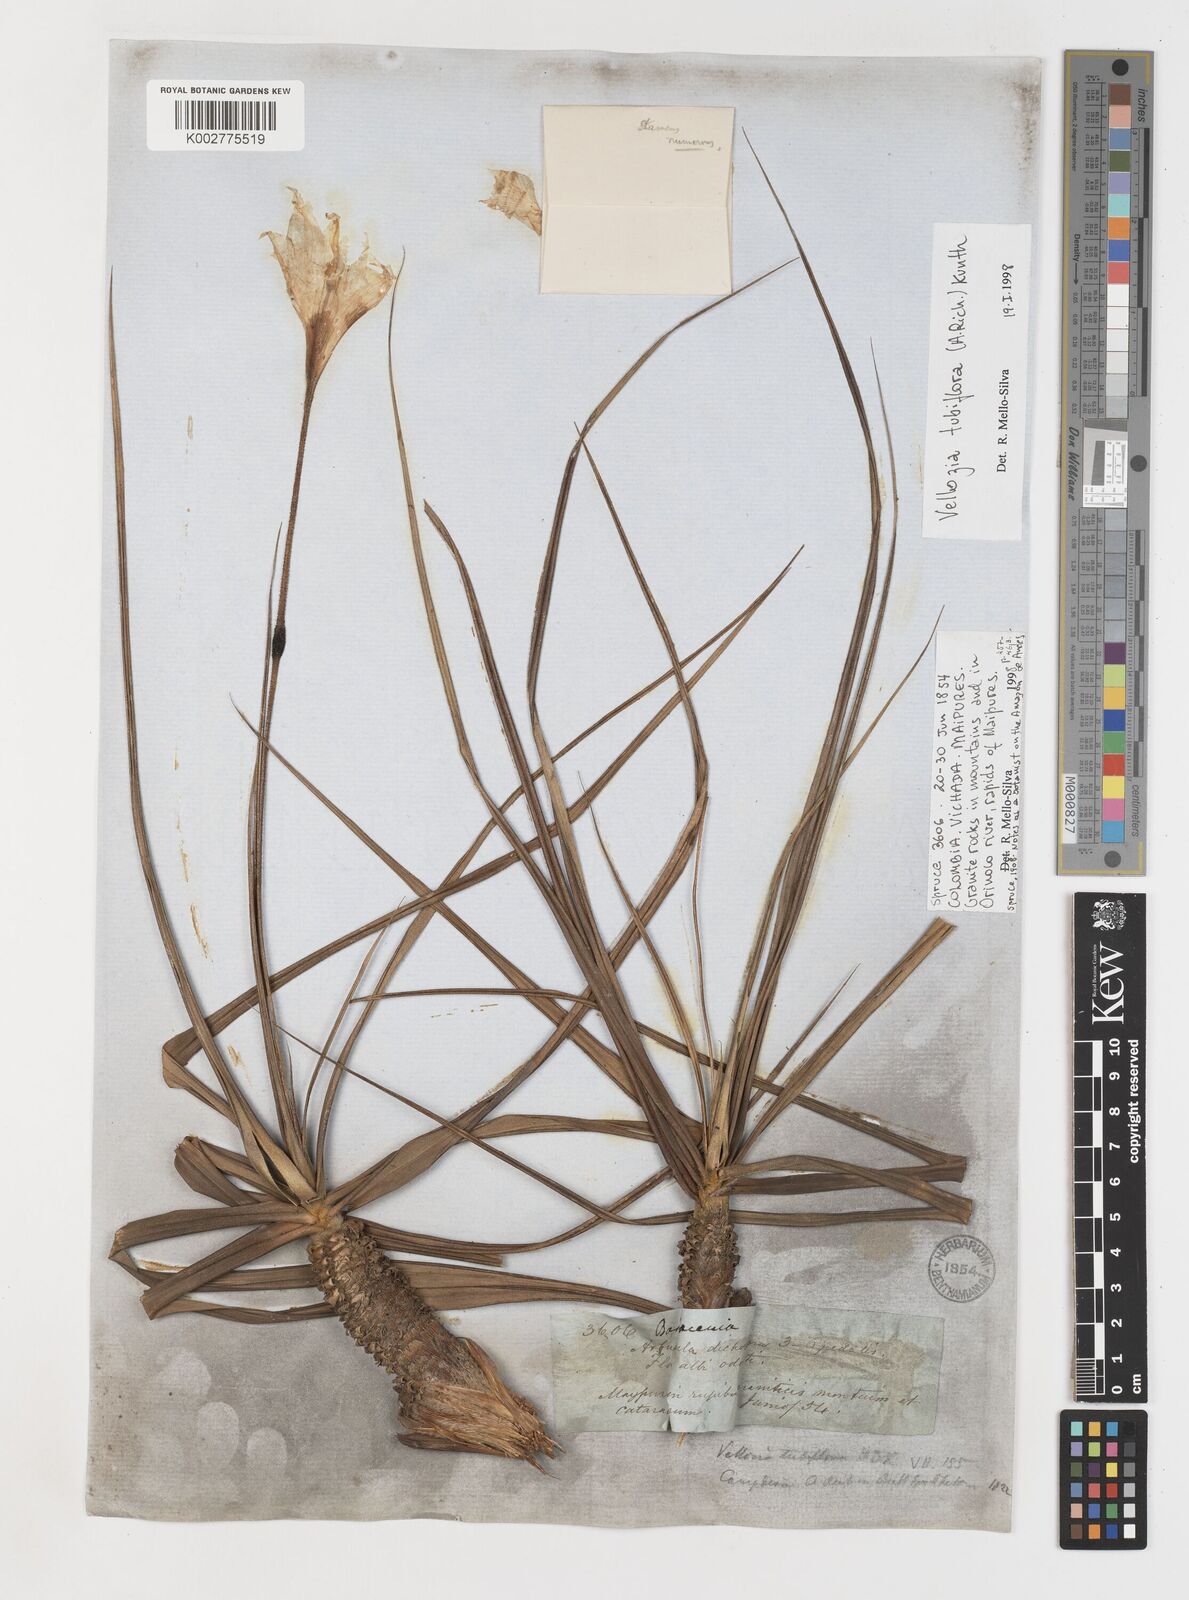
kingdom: Plantae
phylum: Tracheophyta
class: Liliopsida
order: Pandanales
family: Velloziaceae
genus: Vellozia
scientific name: Vellozia tubiflora
